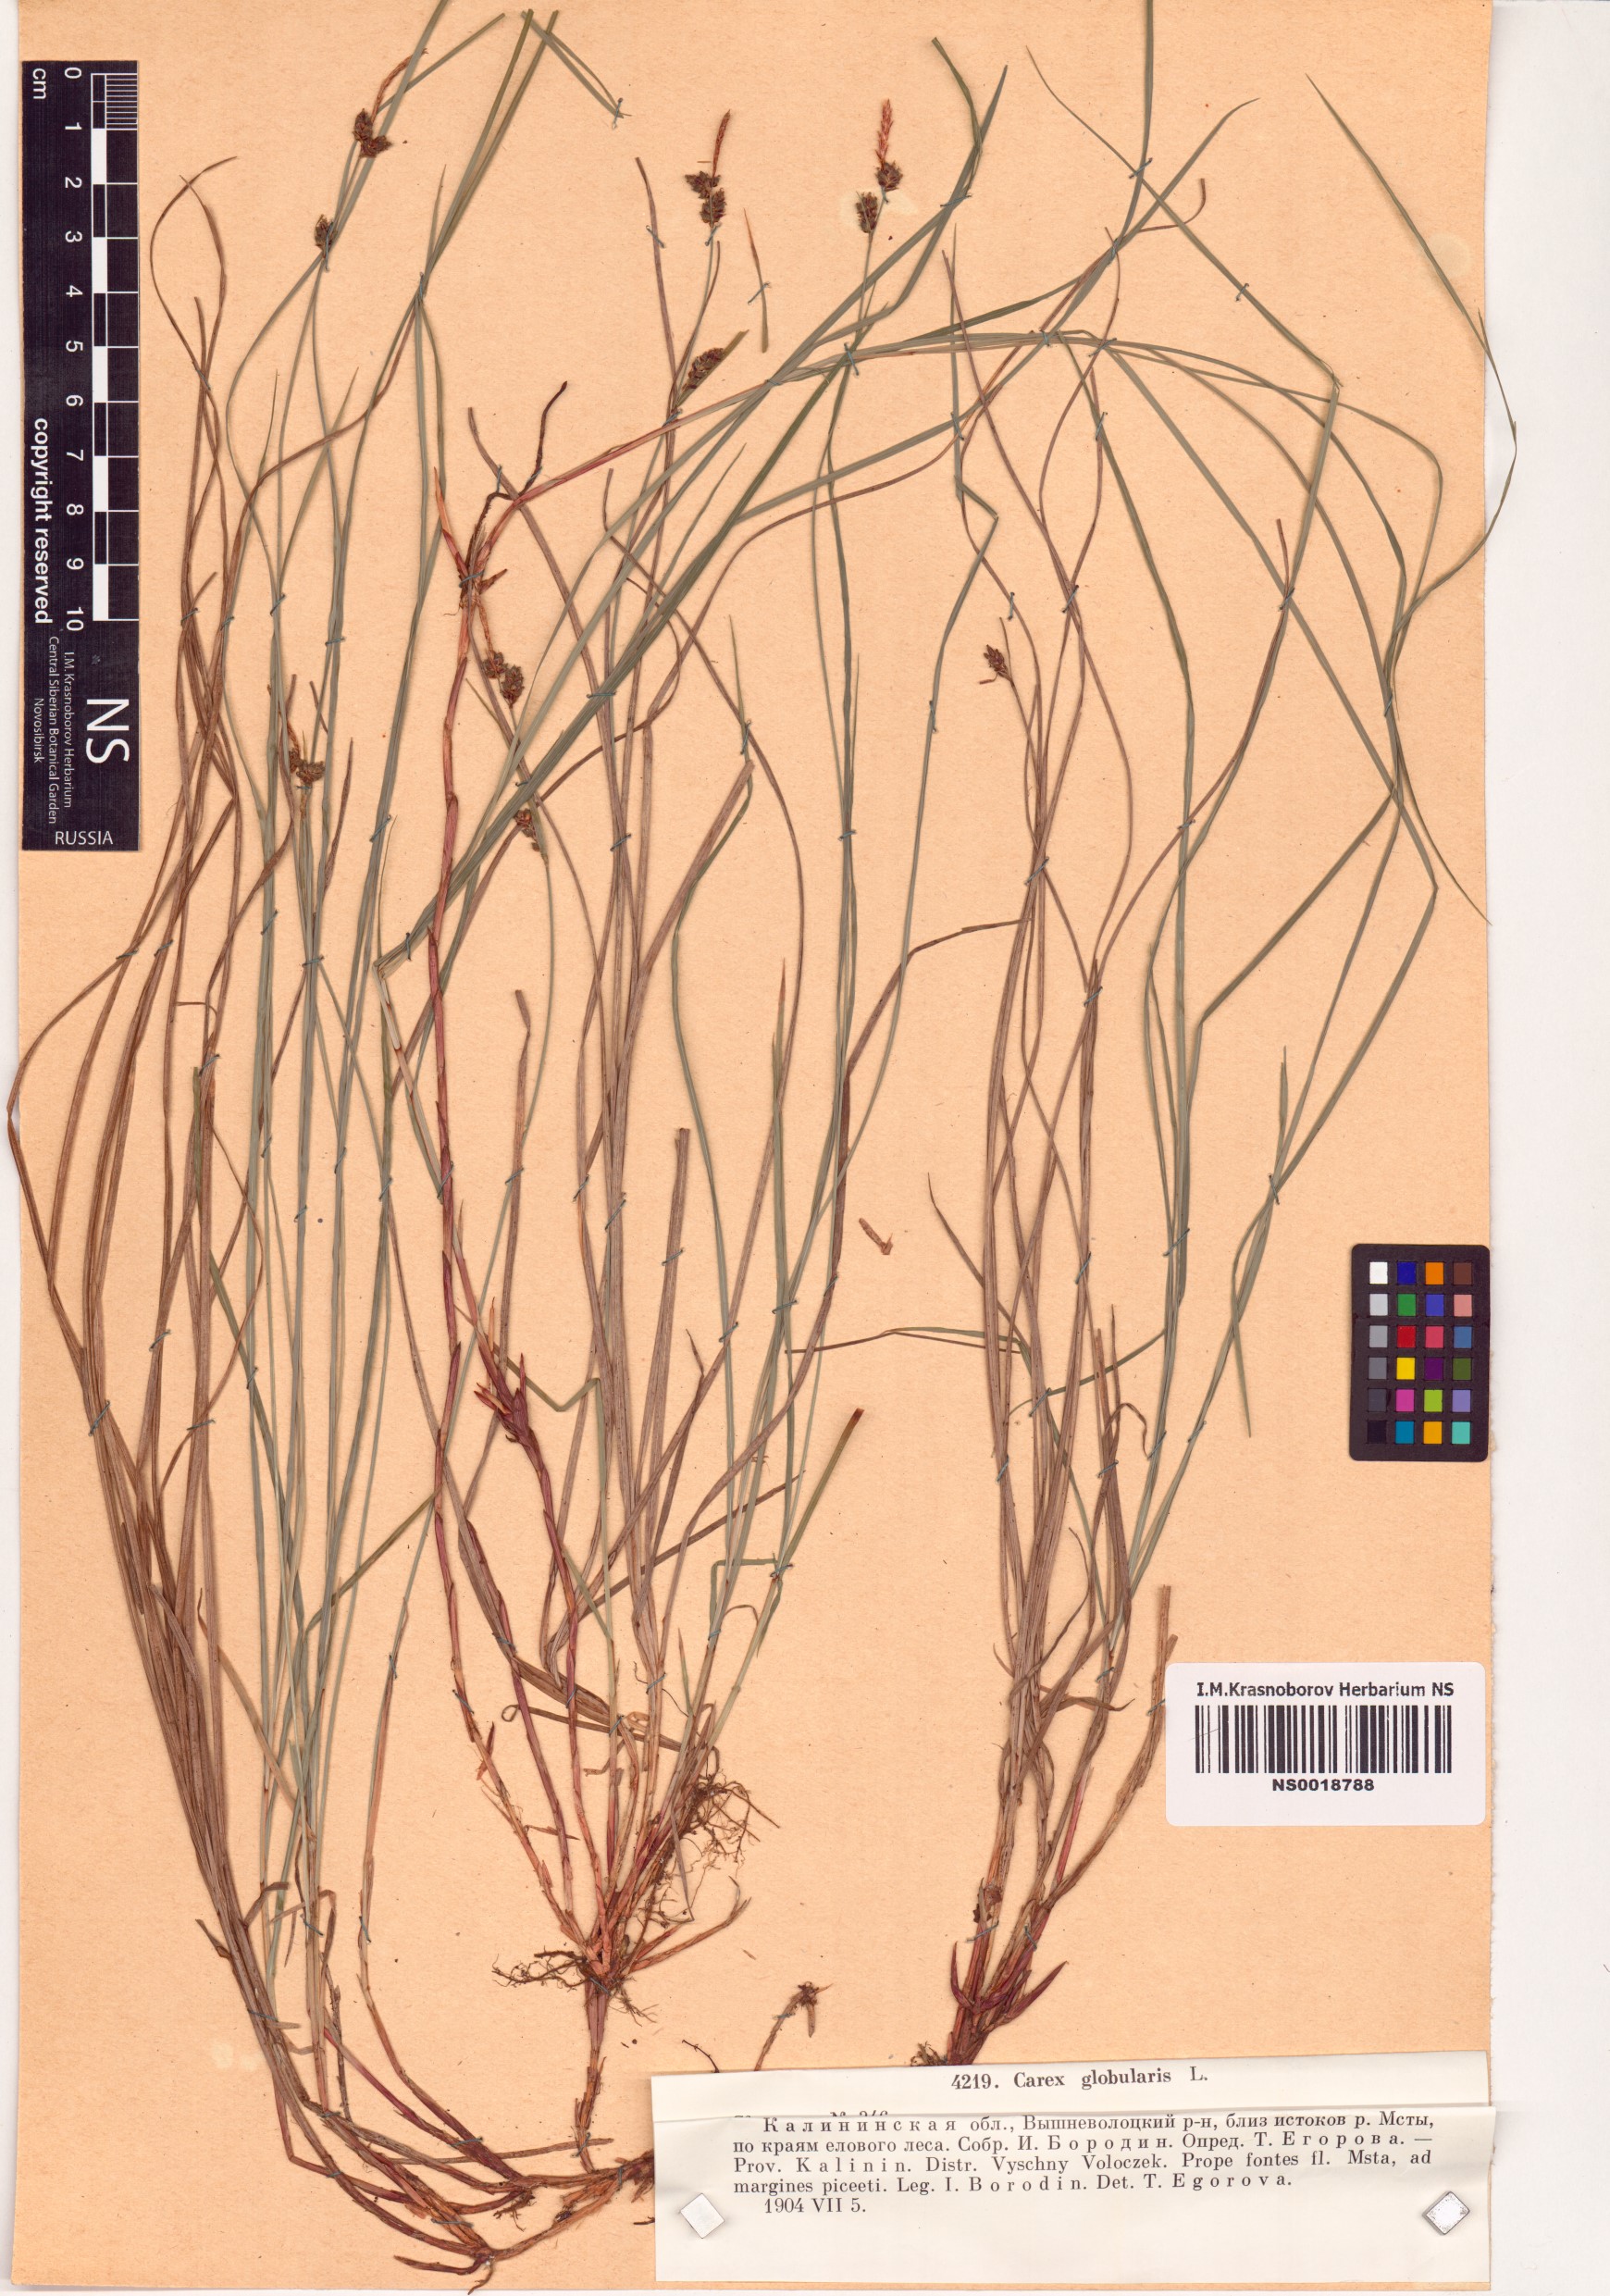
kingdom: Plantae
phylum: Tracheophyta
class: Liliopsida
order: Poales
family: Cyperaceae
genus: Carex
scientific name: Carex globularis
